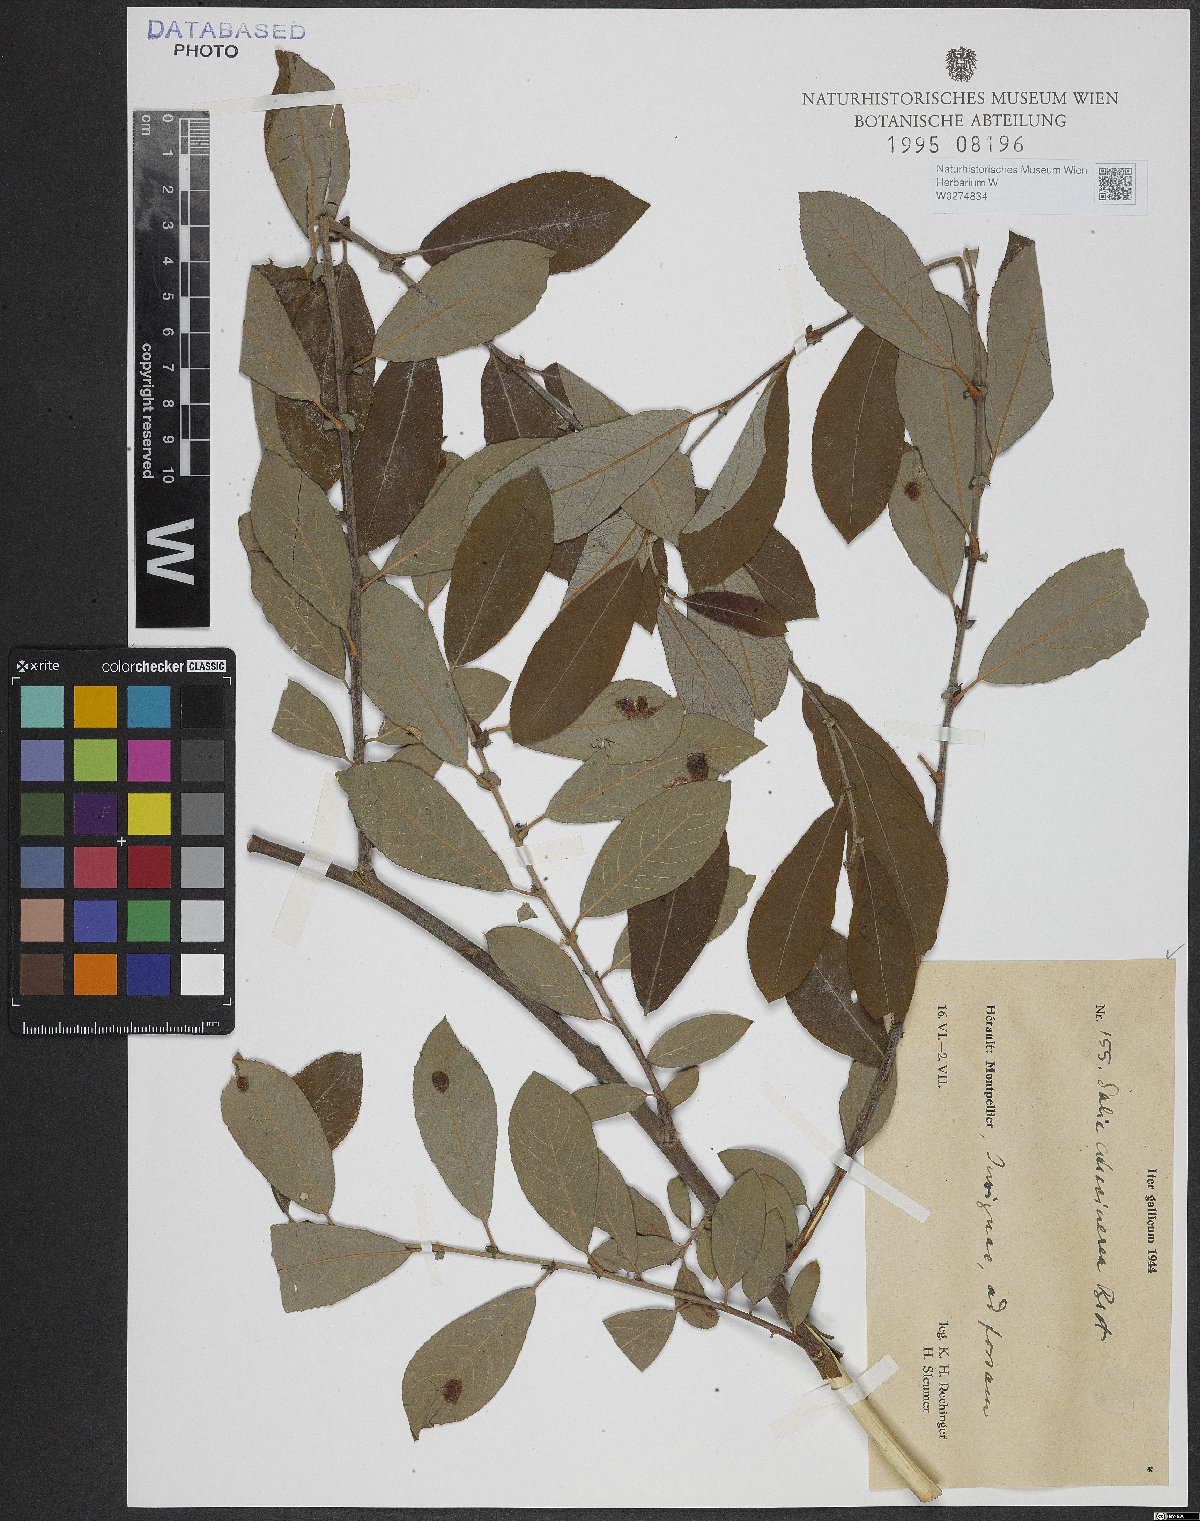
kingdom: Plantae
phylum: Tracheophyta
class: Magnoliopsida
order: Malpighiales
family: Salicaceae
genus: Salix
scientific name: Salix atrocinerea
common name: Rusty willow
